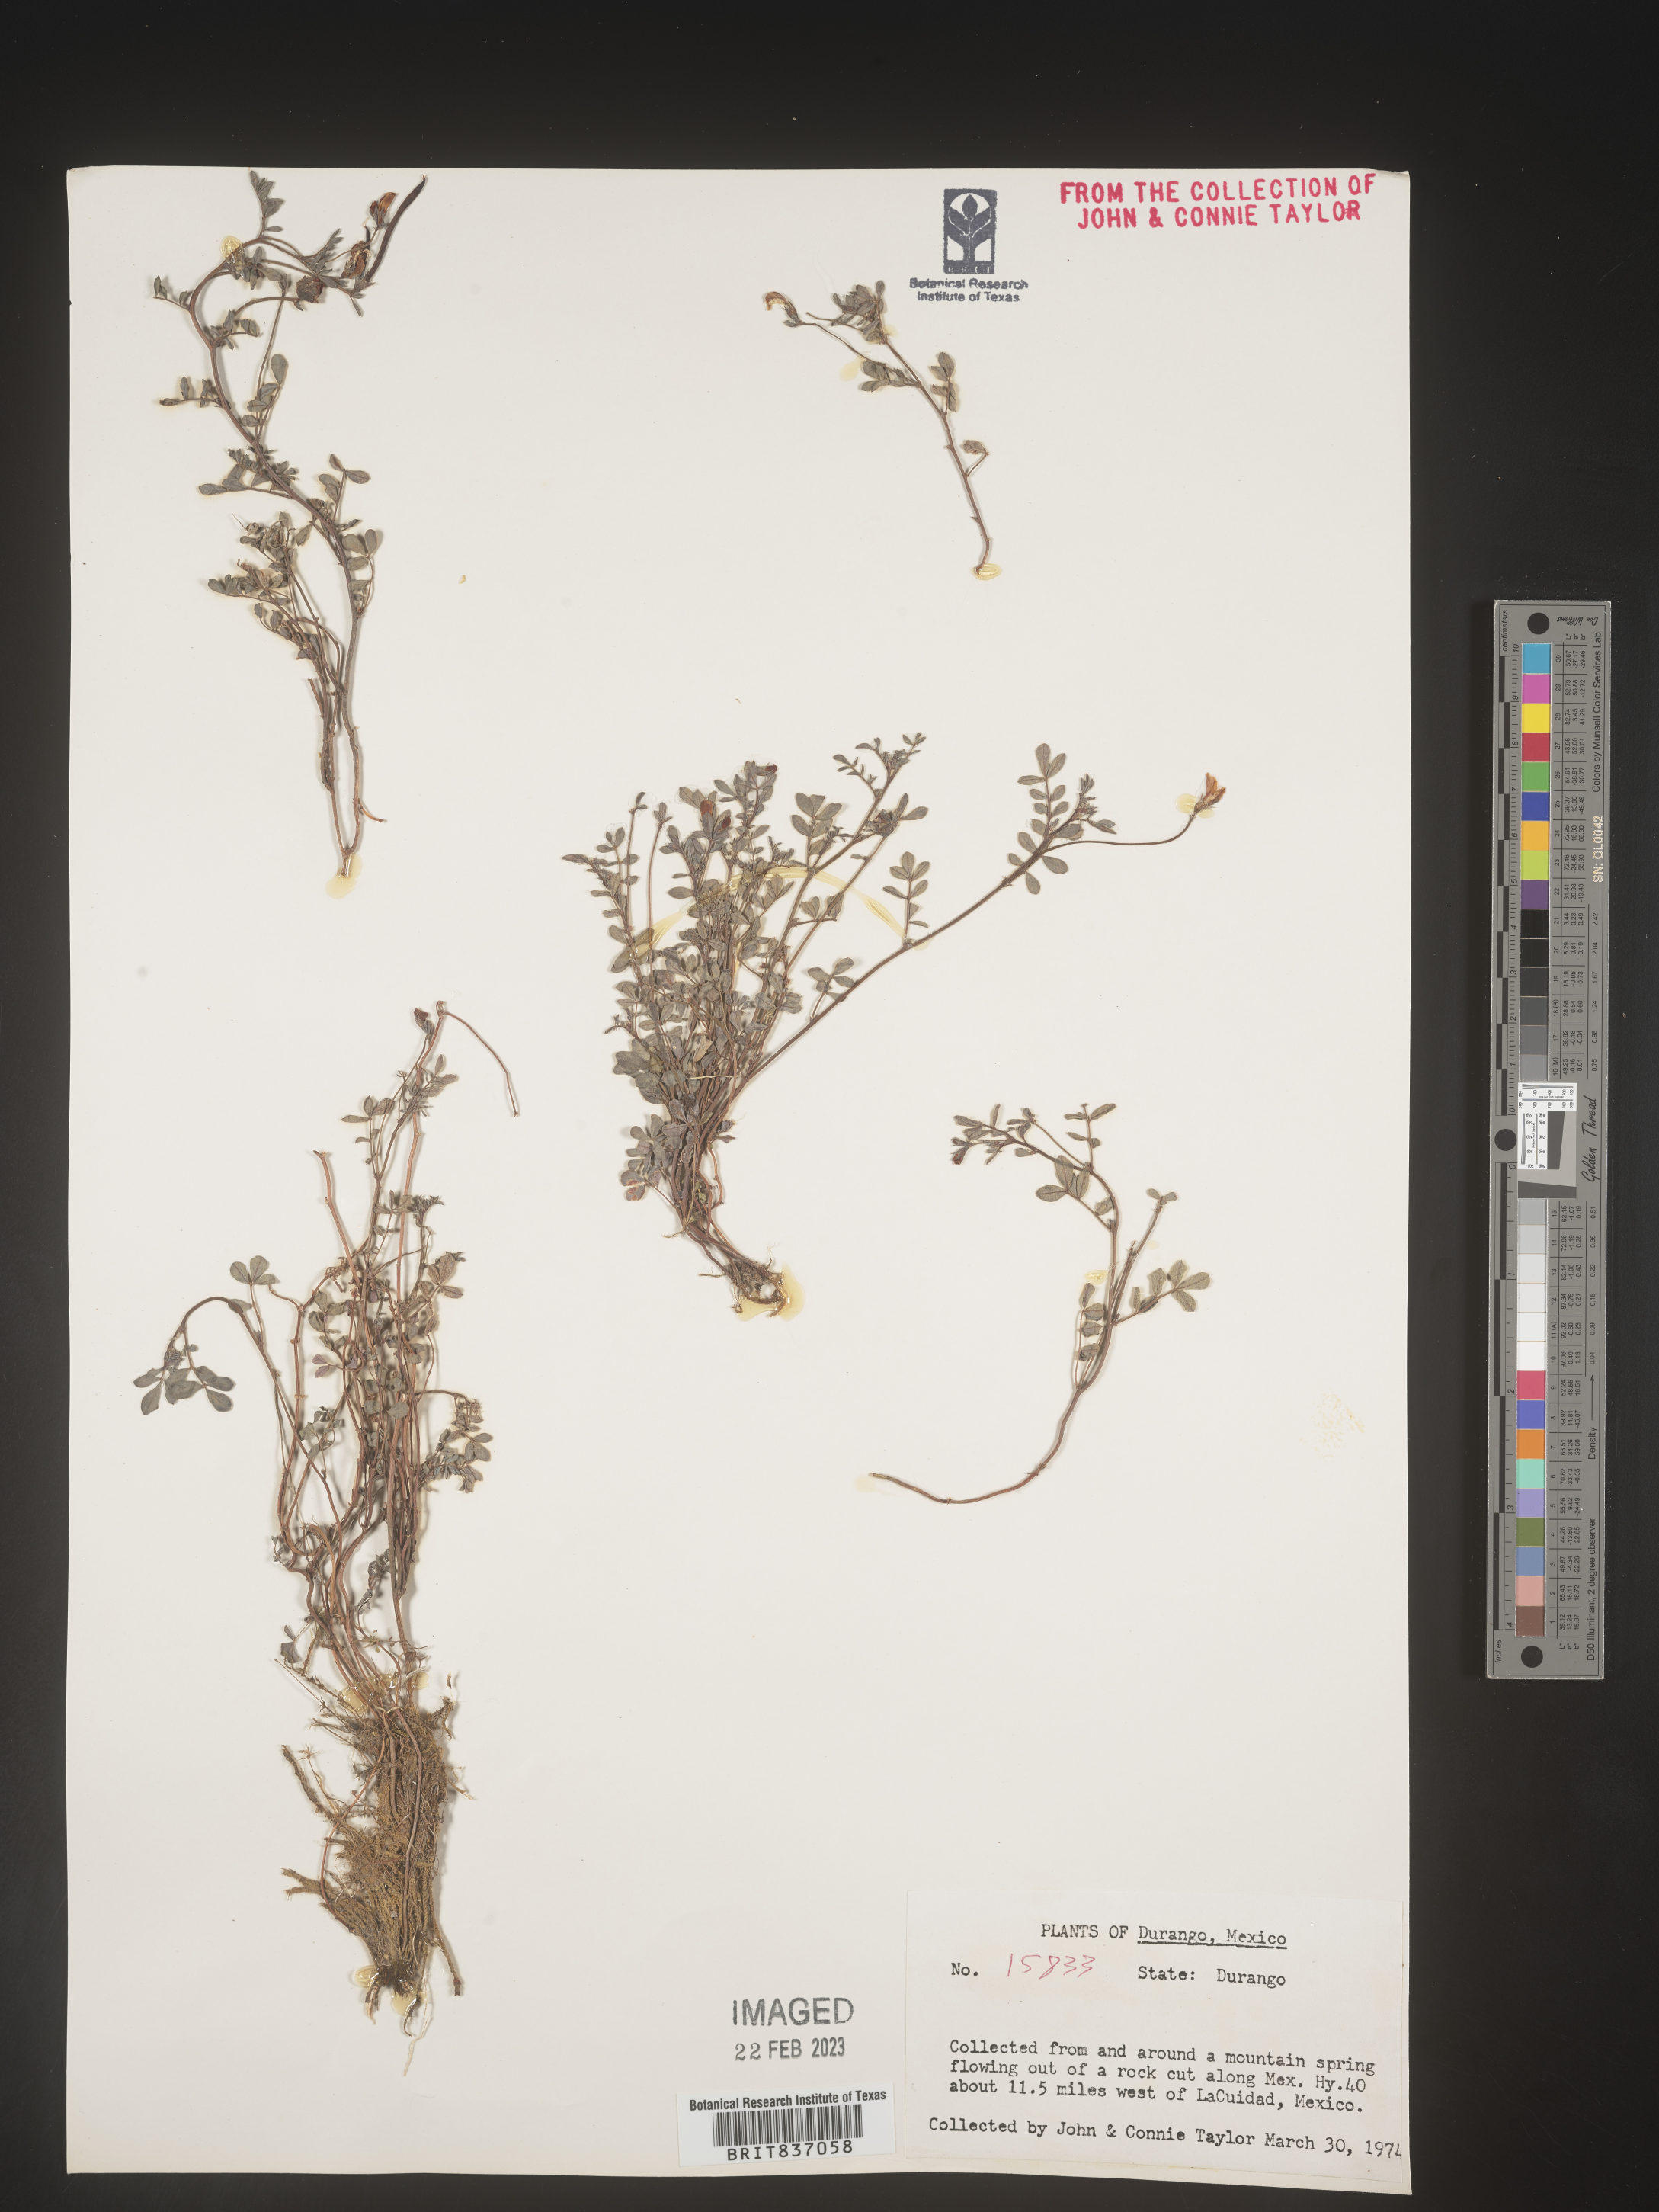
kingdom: Plantae
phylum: Tracheophyta
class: Magnoliopsida
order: Fabales
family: Fabaceae
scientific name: Fabaceae
